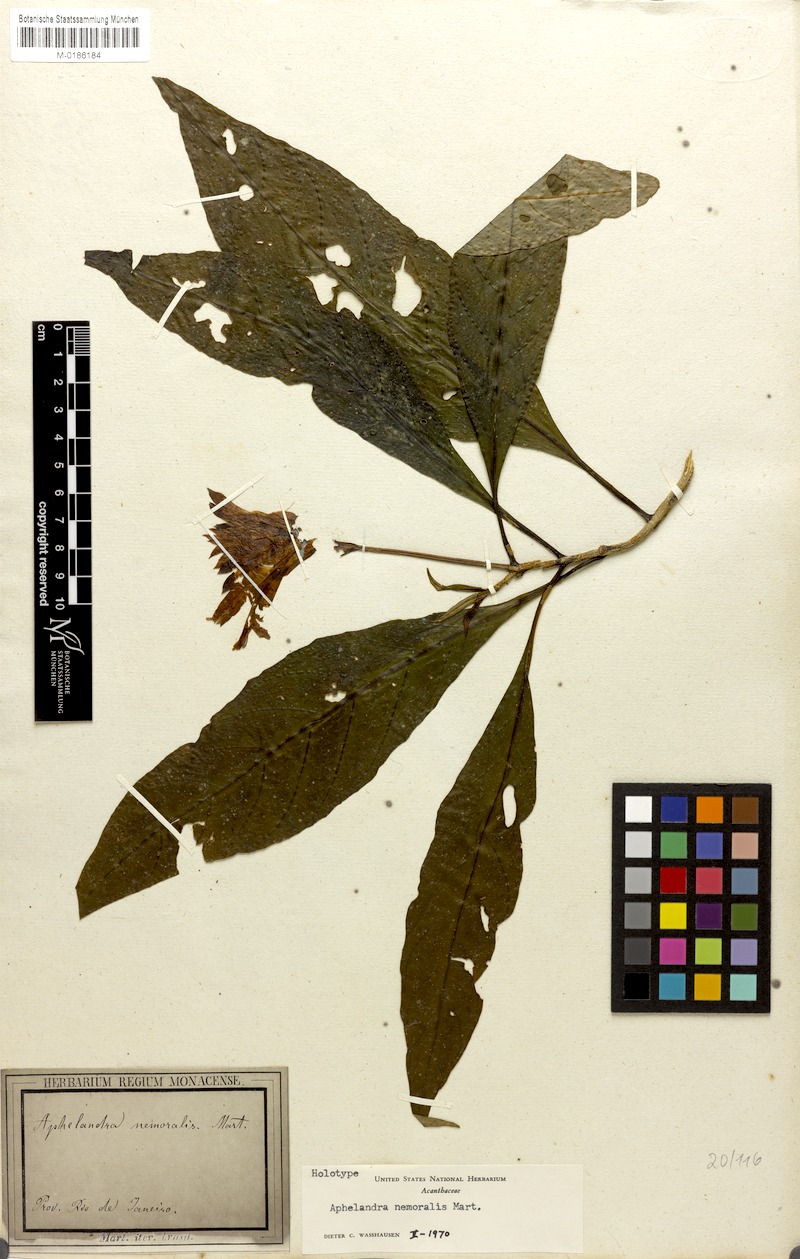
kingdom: Plantae
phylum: Tracheophyta
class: Magnoliopsida
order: Lamiales
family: Acanthaceae
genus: Aphelandra
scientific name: Aphelandra nemoralis
